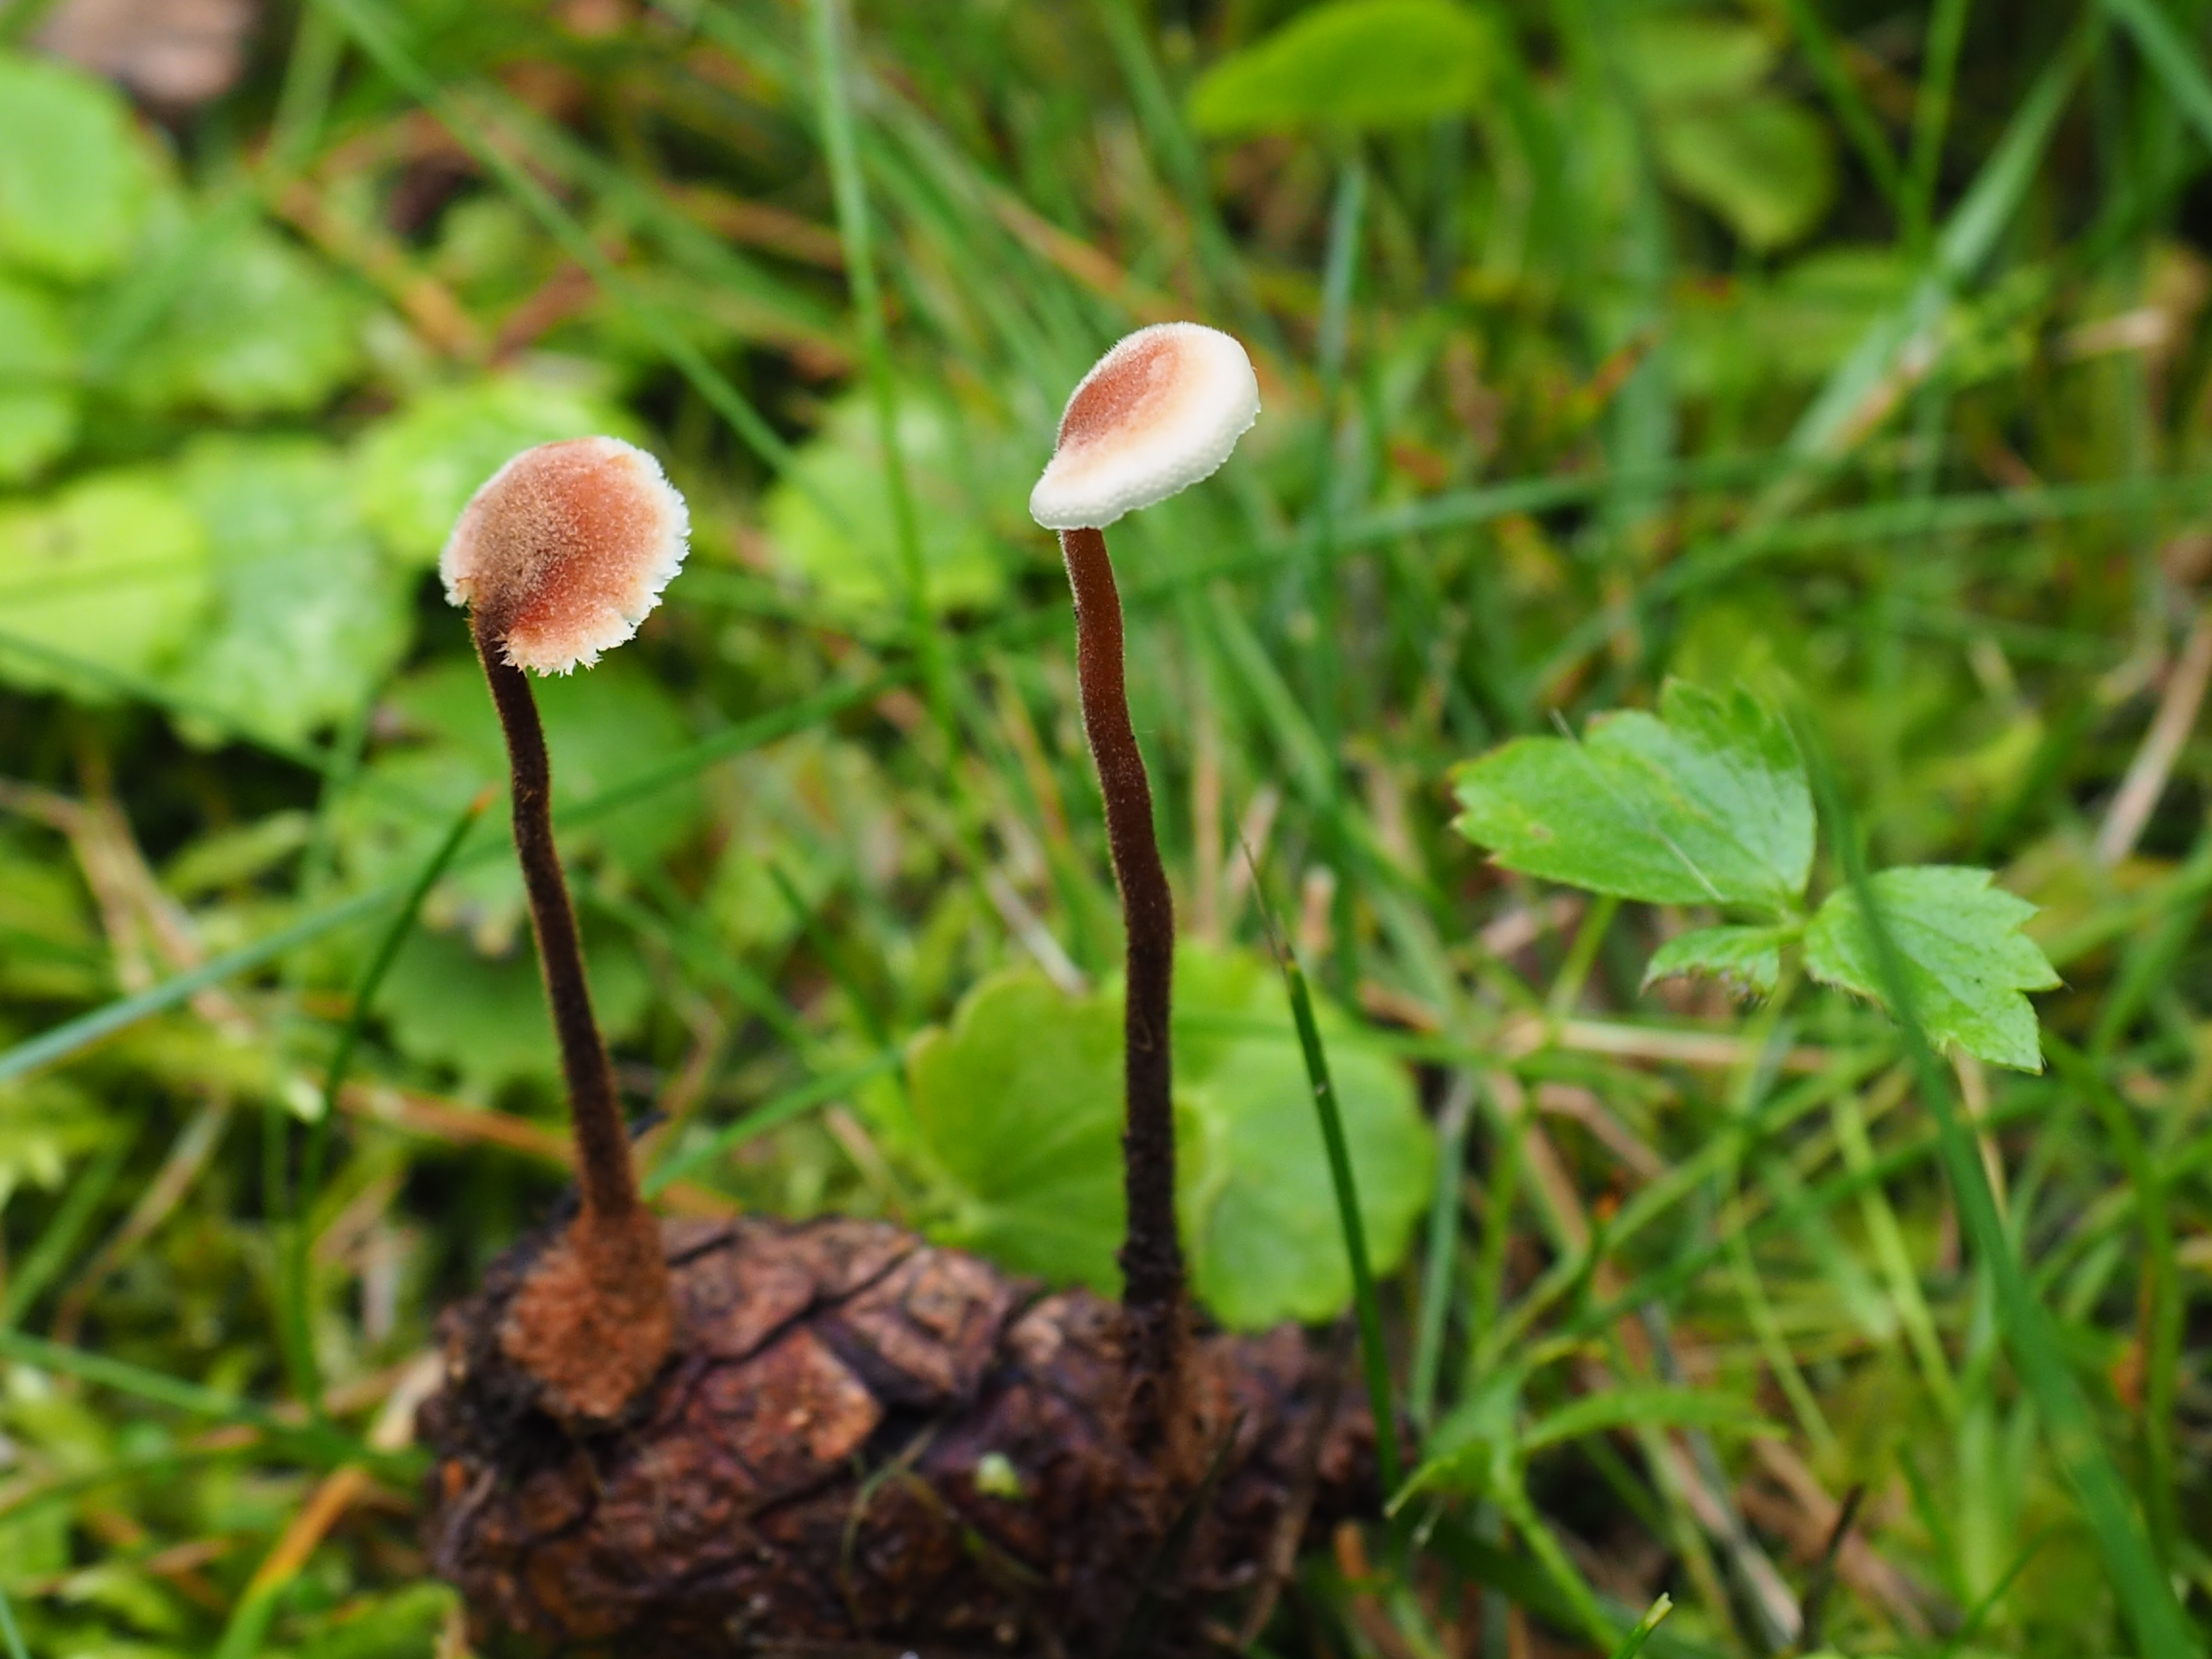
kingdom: Fungi
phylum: Basidiomycota
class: Agaricomycetes
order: Russulales
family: Auriscalpiaceae
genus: Auriscalpium
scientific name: Auriscalpium vulgare
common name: Earpick fungus
